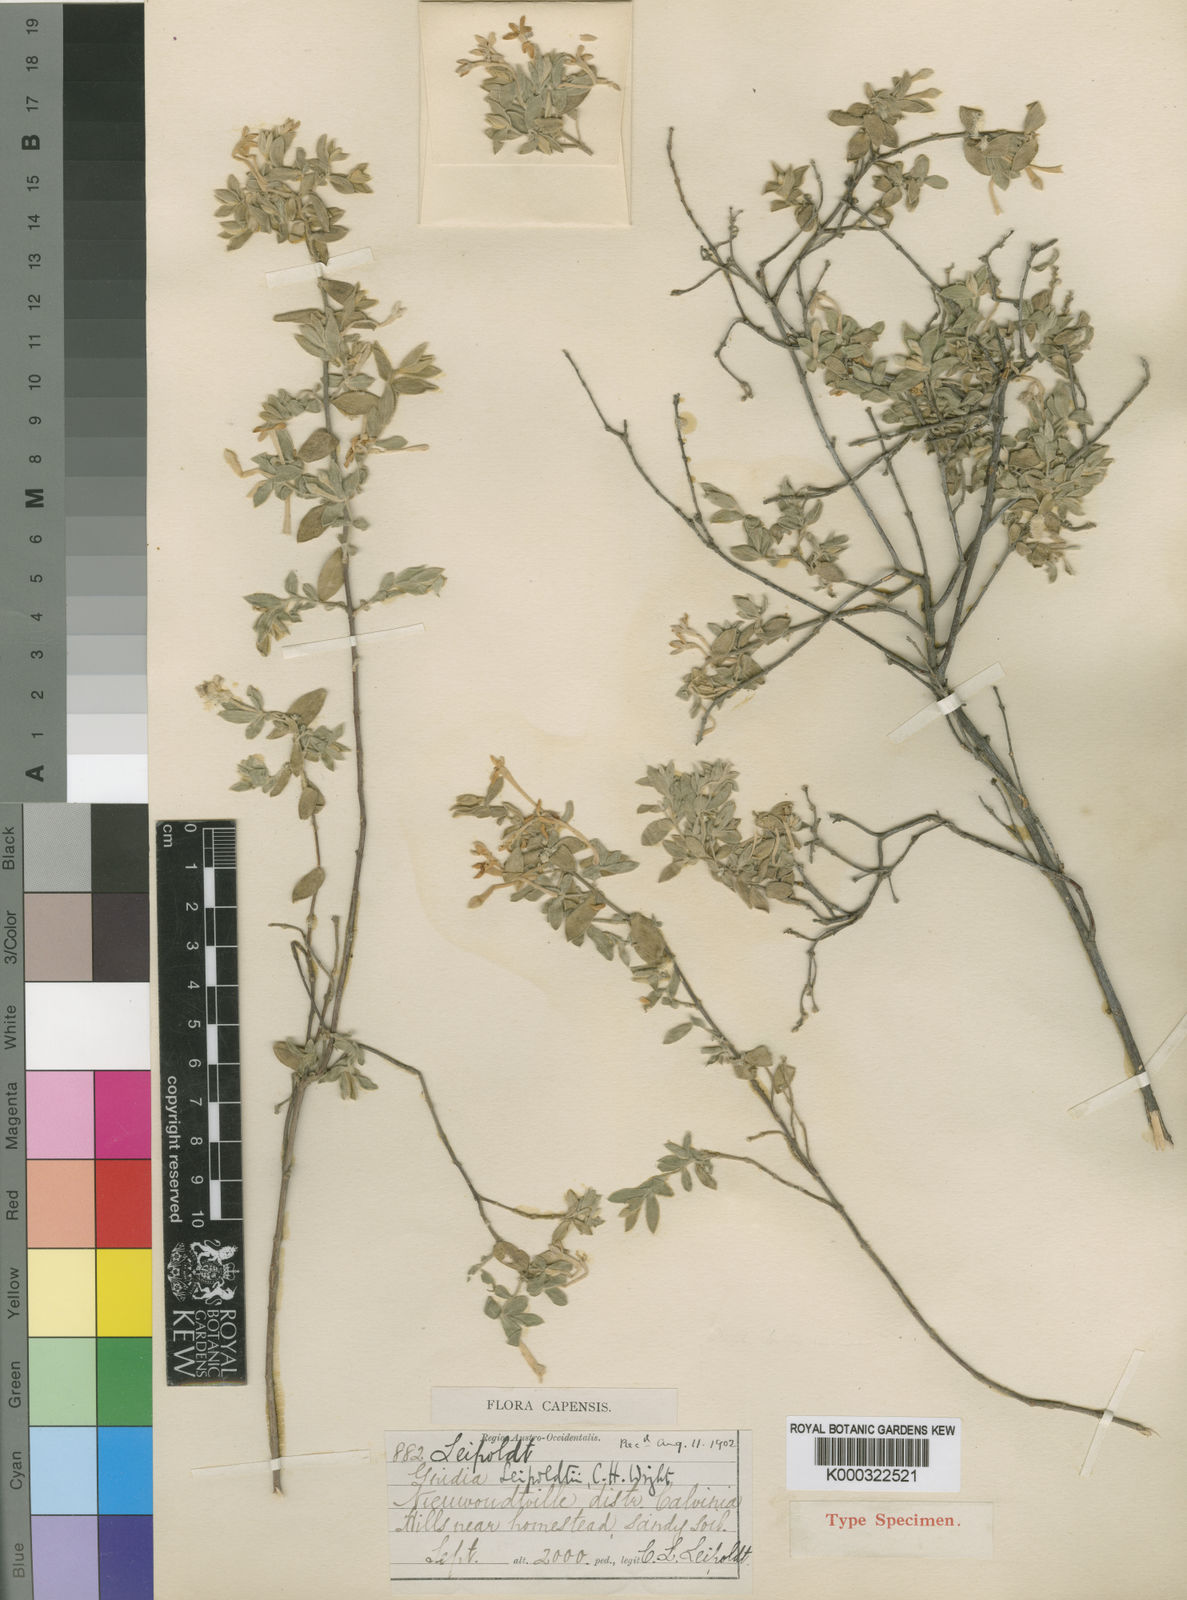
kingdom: Plantae
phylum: Tracheophyta
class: Magnoliopsida
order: Malvales
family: Thymelaeaceae
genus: Gnidia
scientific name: Gnidia leipoldtii
